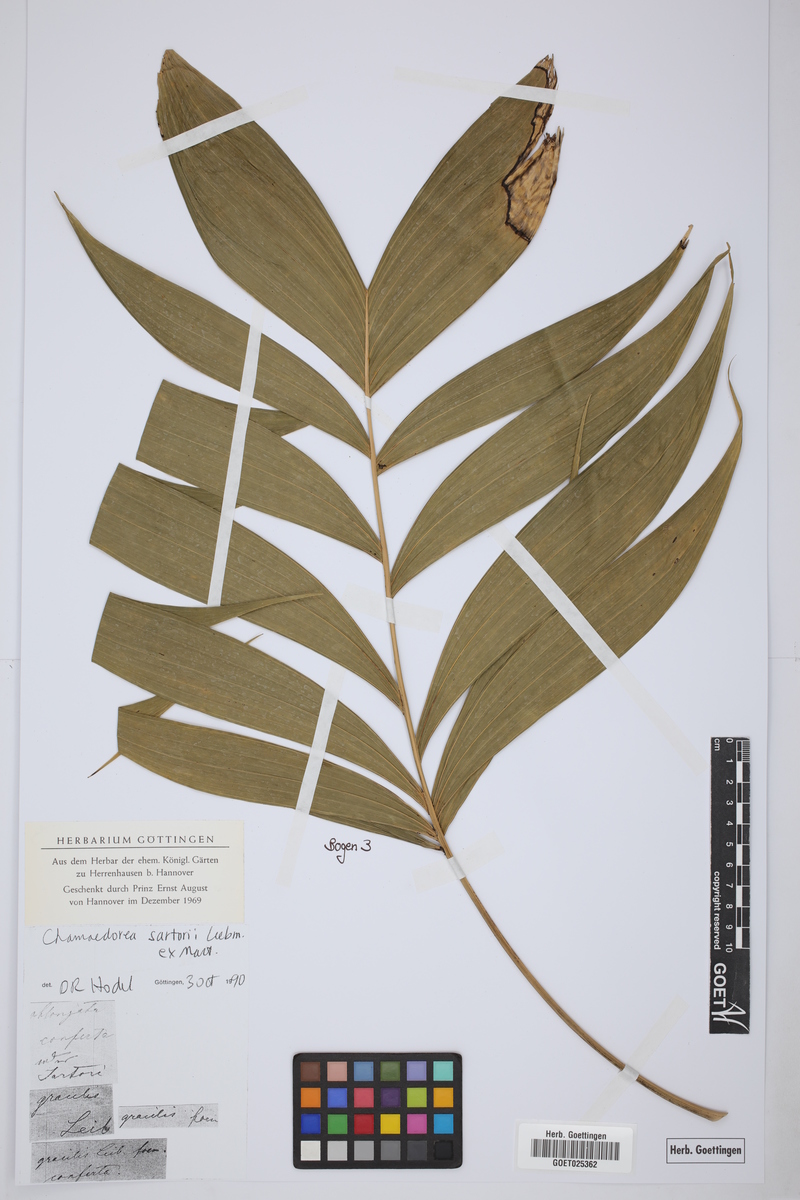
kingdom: Plantae
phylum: Tracheophyta
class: Liliopsida
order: Arecales
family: Arecaceae
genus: Chamaedorea
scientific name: Chamaedorea sartorii
